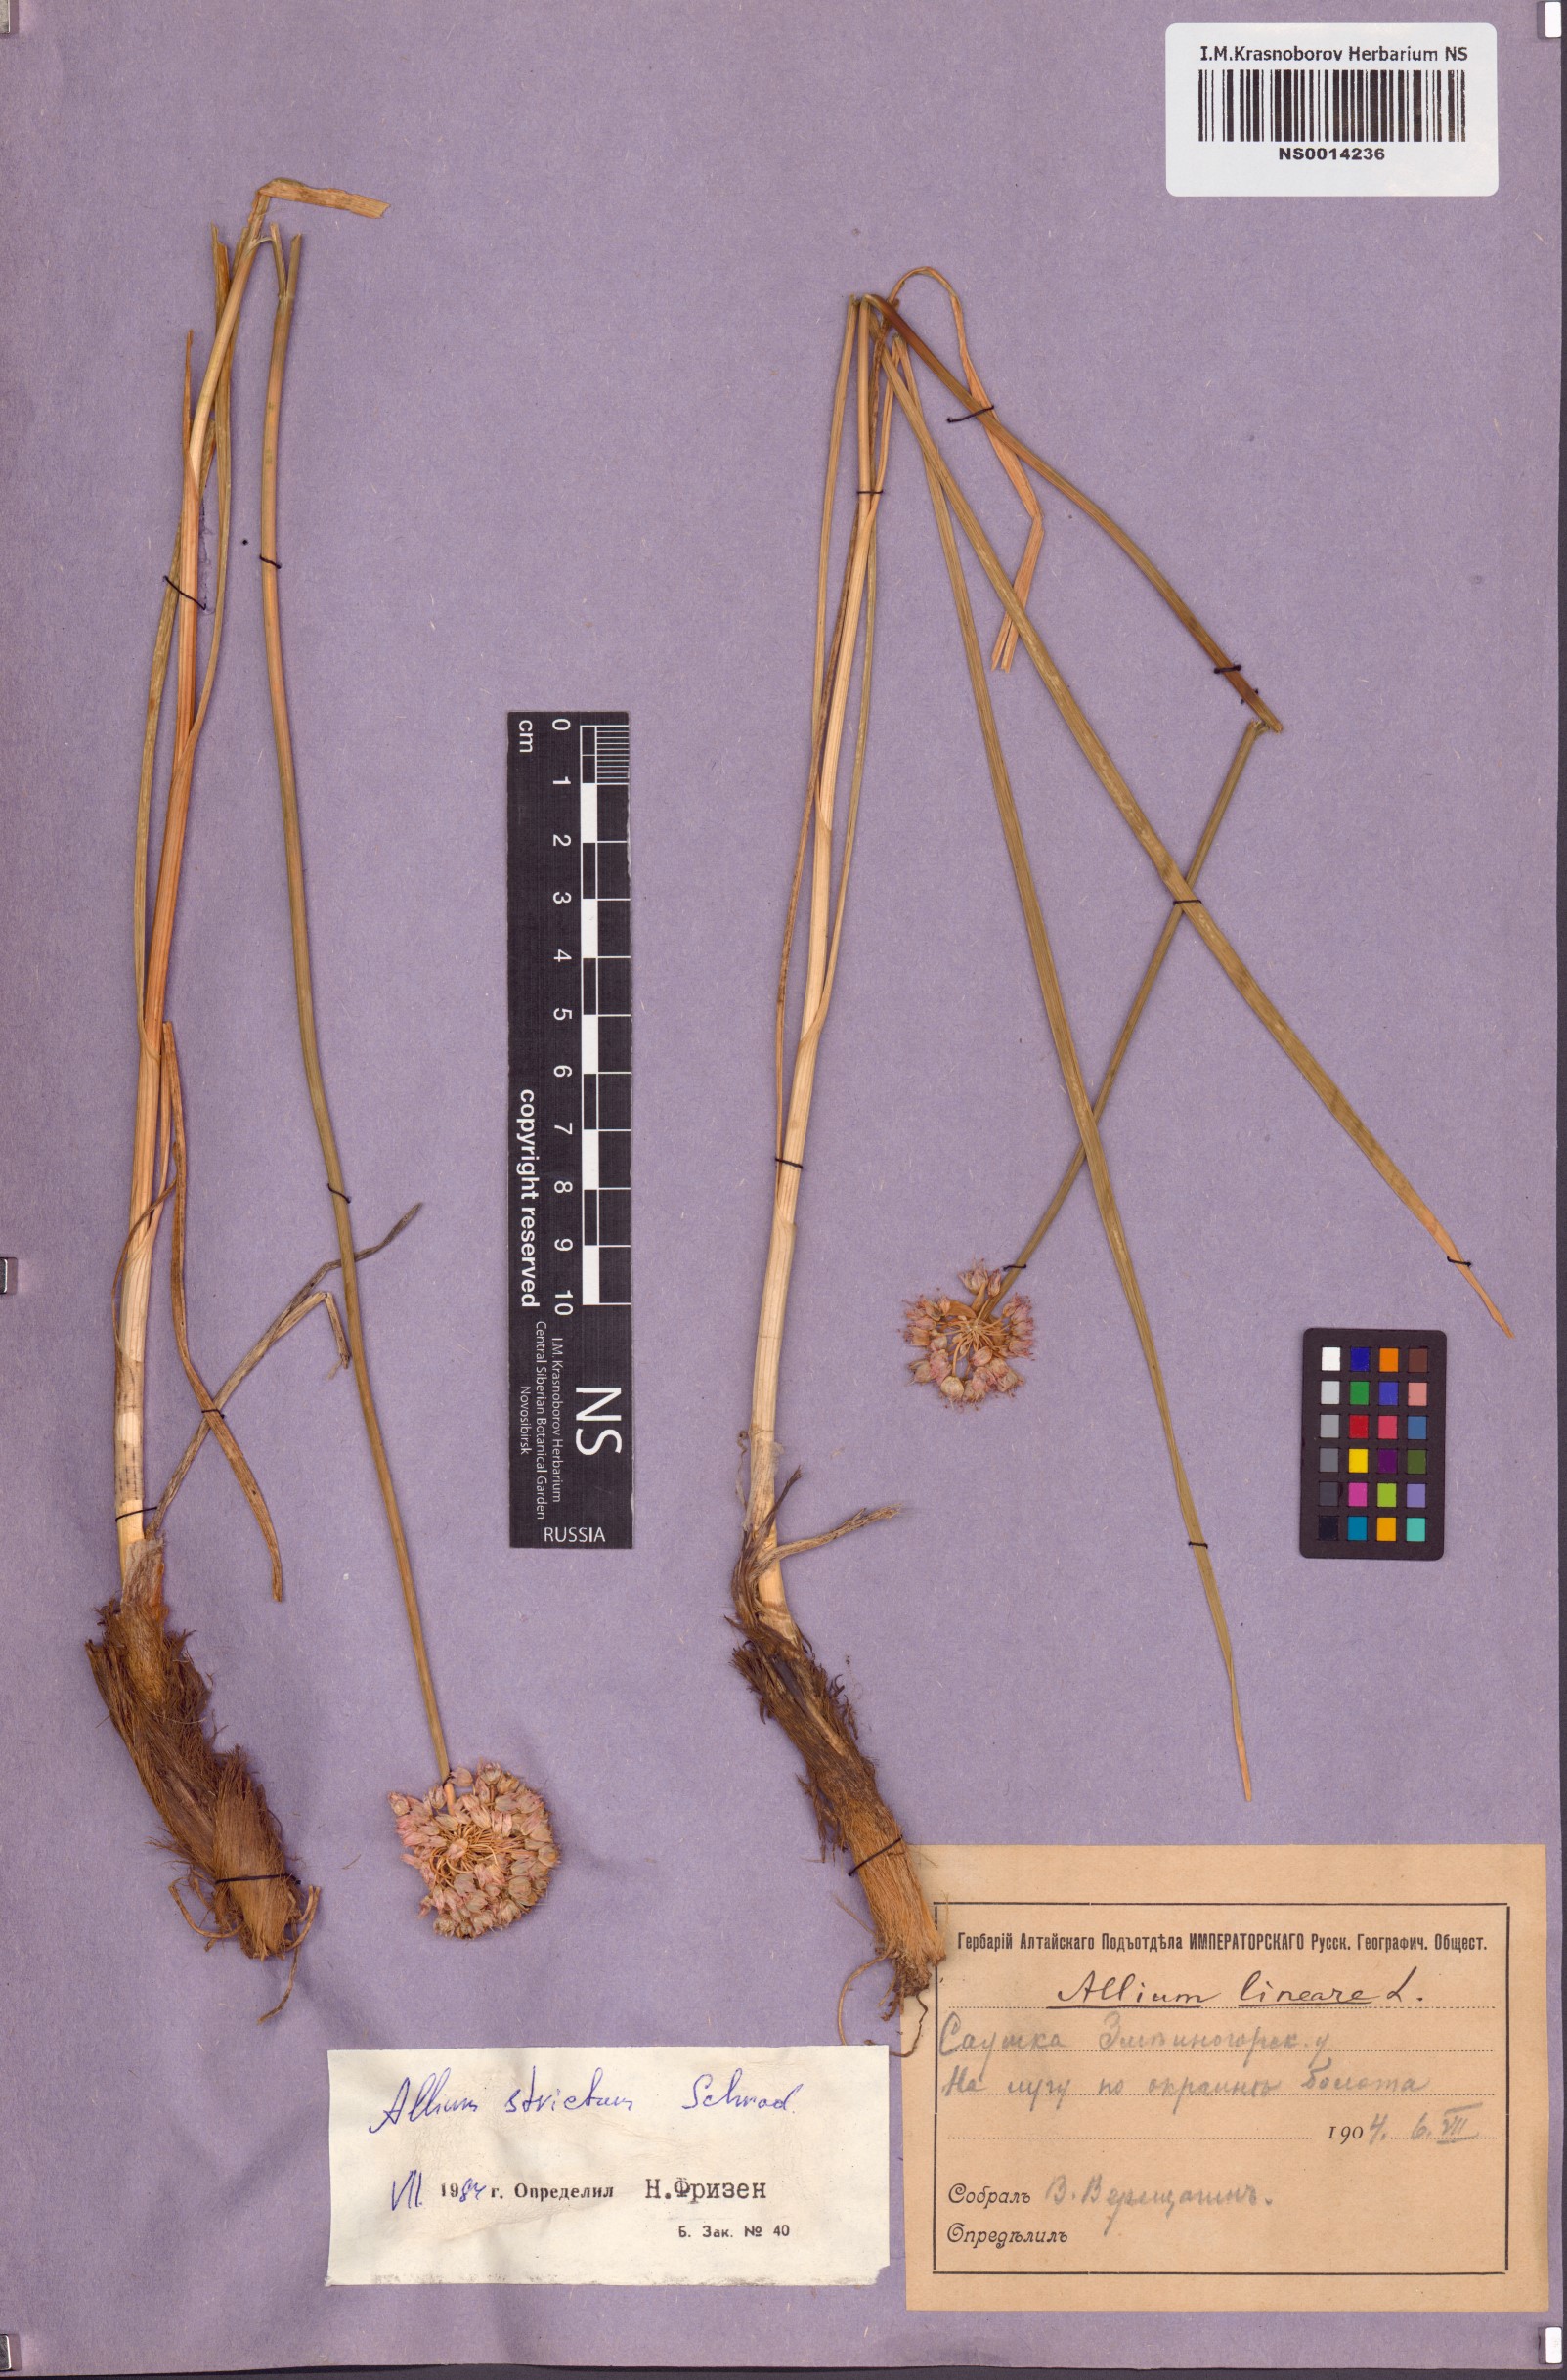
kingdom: Plantae
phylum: Tracheophyta
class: Liliopsida
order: Asparagales
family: Amaryllidaceae
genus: Allium
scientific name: Allium strictum
